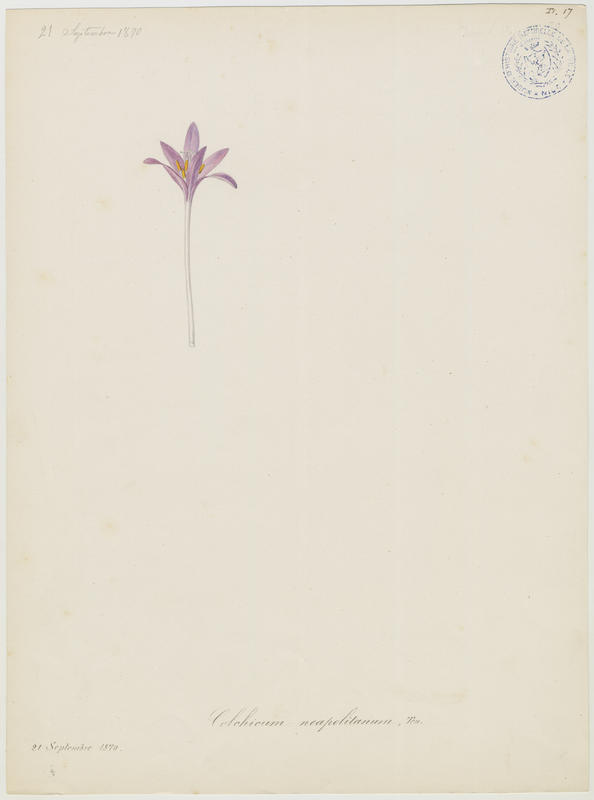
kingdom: Plantae
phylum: Tracheophyta
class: Liliopsida
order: Liliales
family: Colchicaceae
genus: Colchicum
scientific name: Colchicum parnassicum
